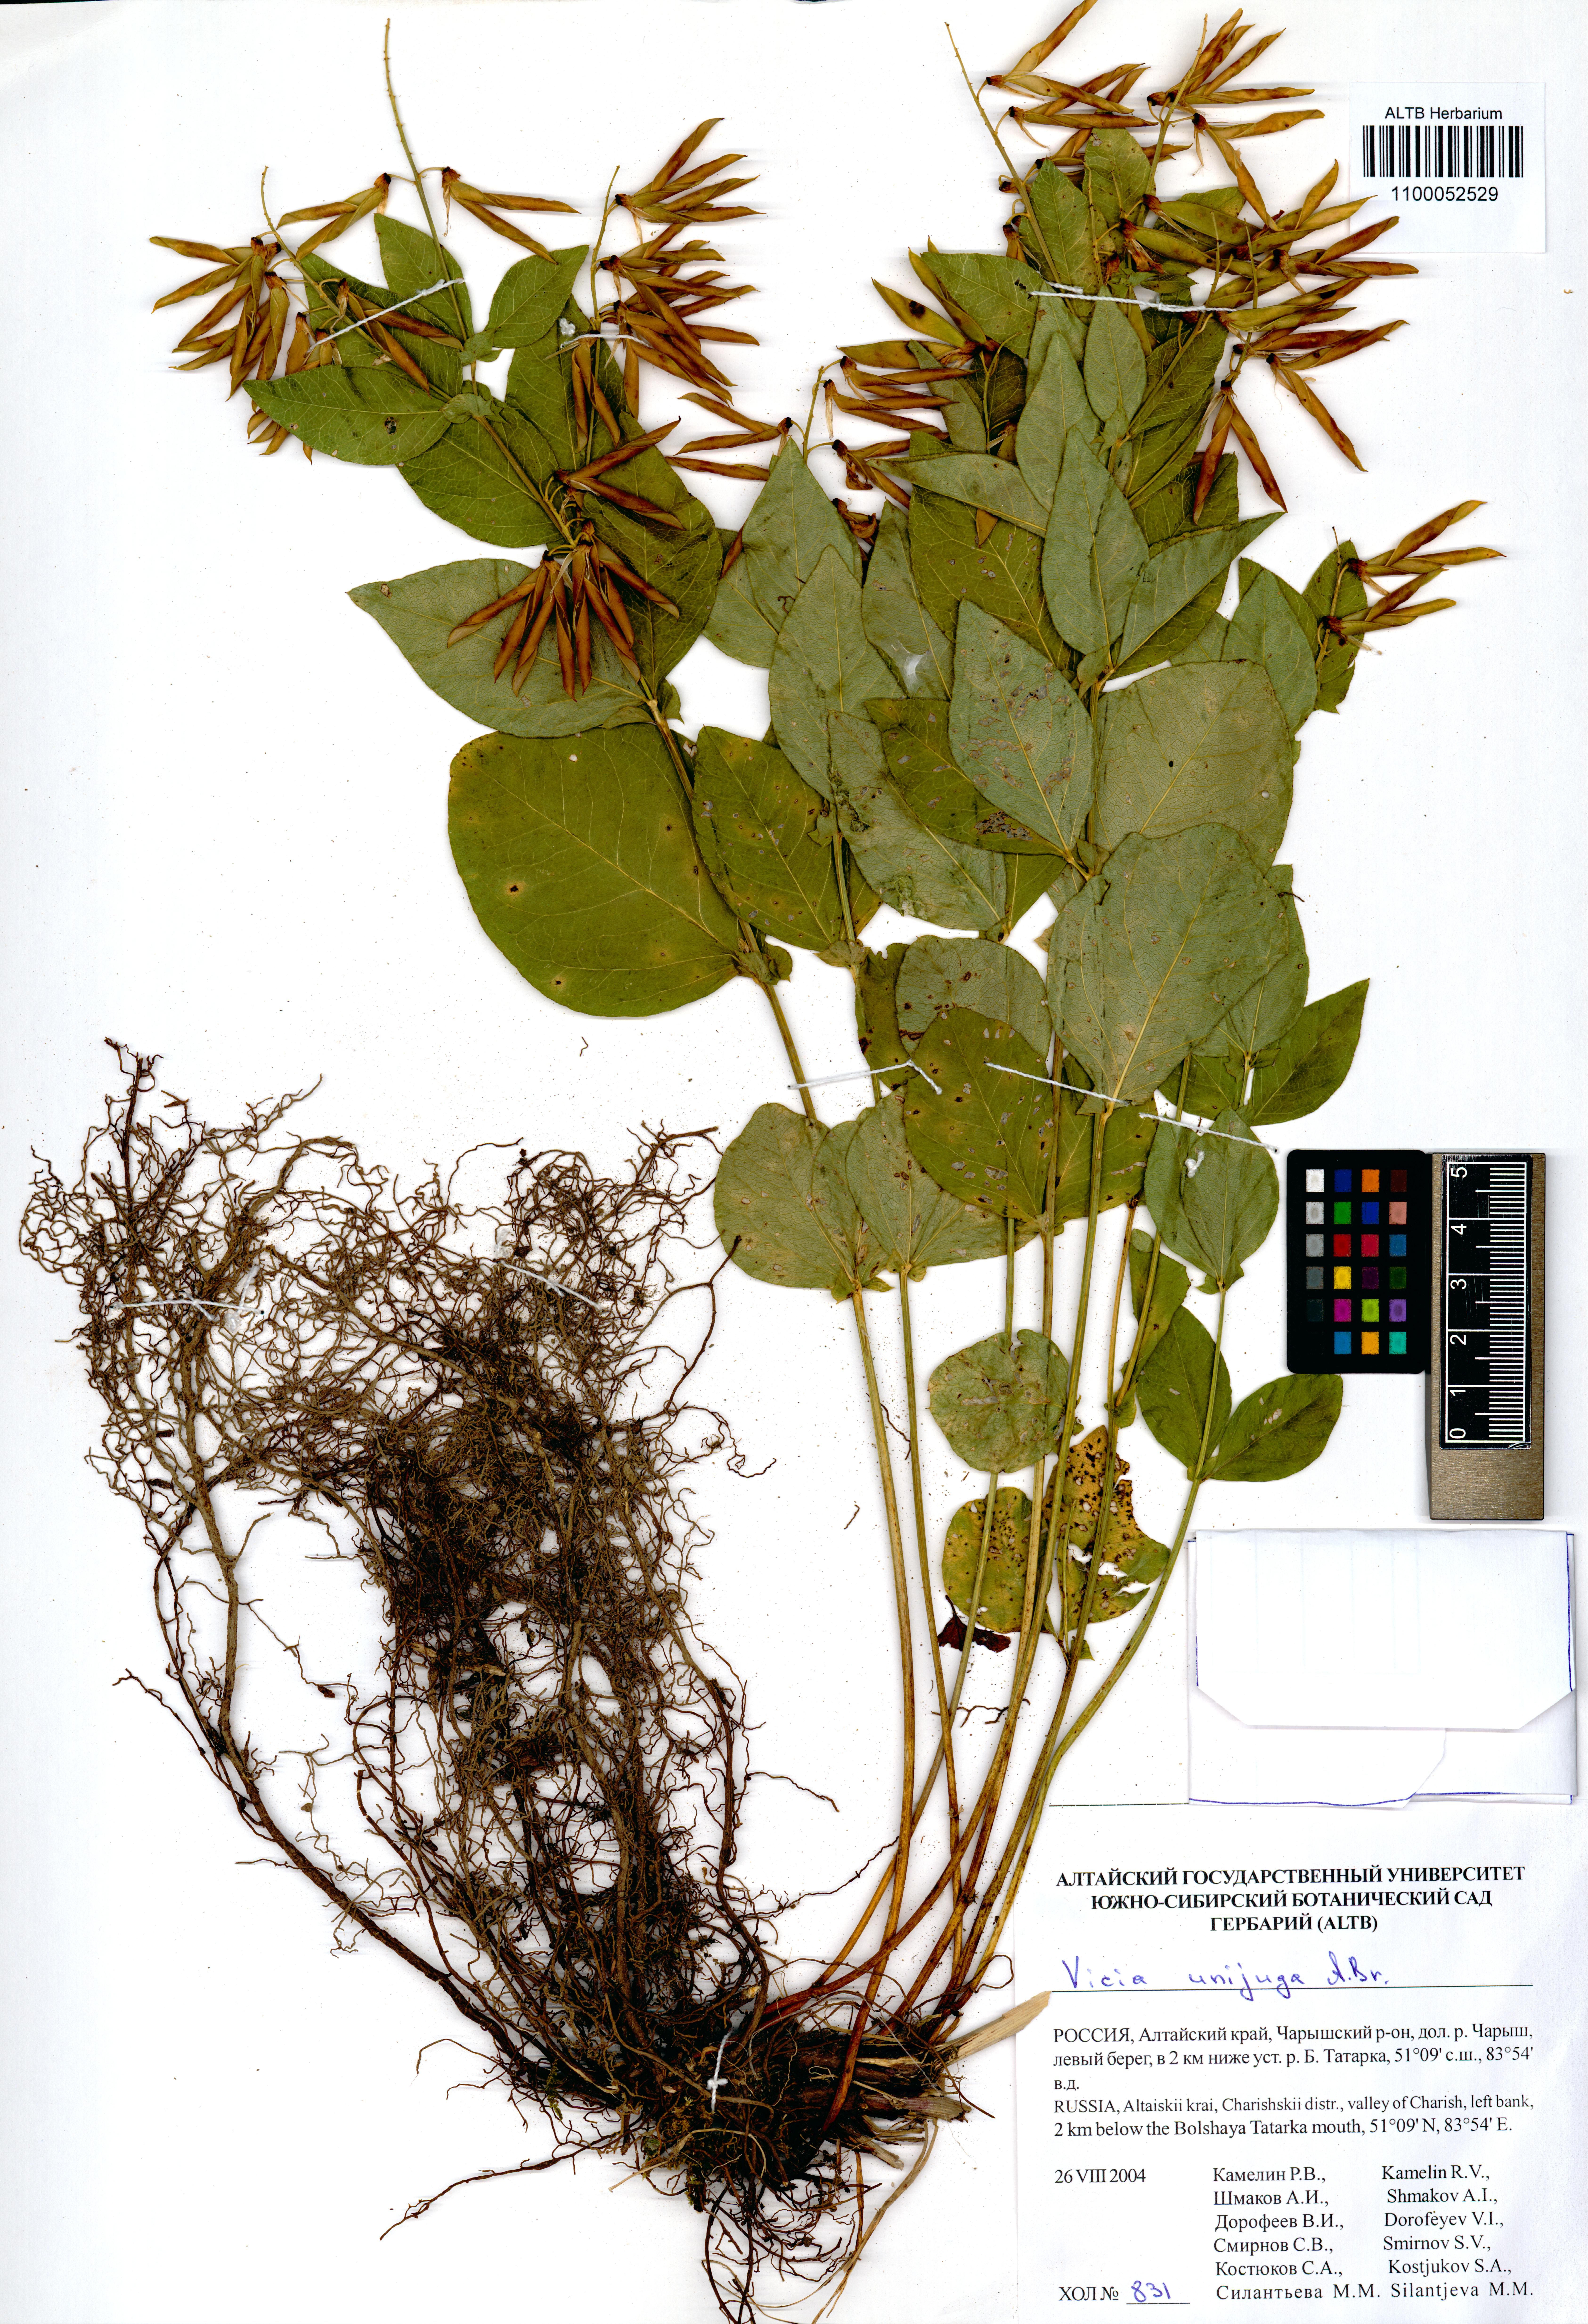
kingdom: Plantae
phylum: Tracheophyta
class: Magnoliopsida
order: Fabales
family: Fabaceae
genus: Vicia
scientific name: Vicia unijuga
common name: Two-leaf vetch
